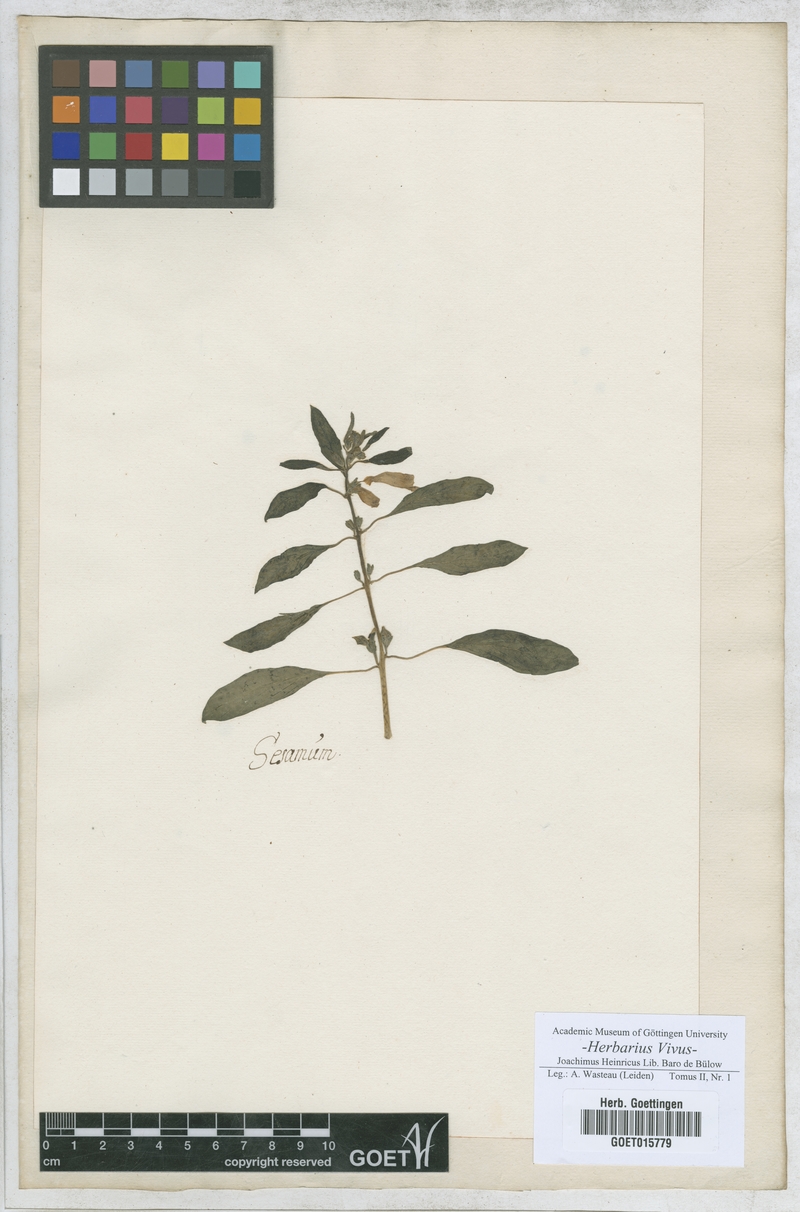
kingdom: Plantae
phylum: Tracheophyta
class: Magnoliopsida
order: Lamiales
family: Pedaliaceae
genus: Sesamum
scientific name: Sesamum
